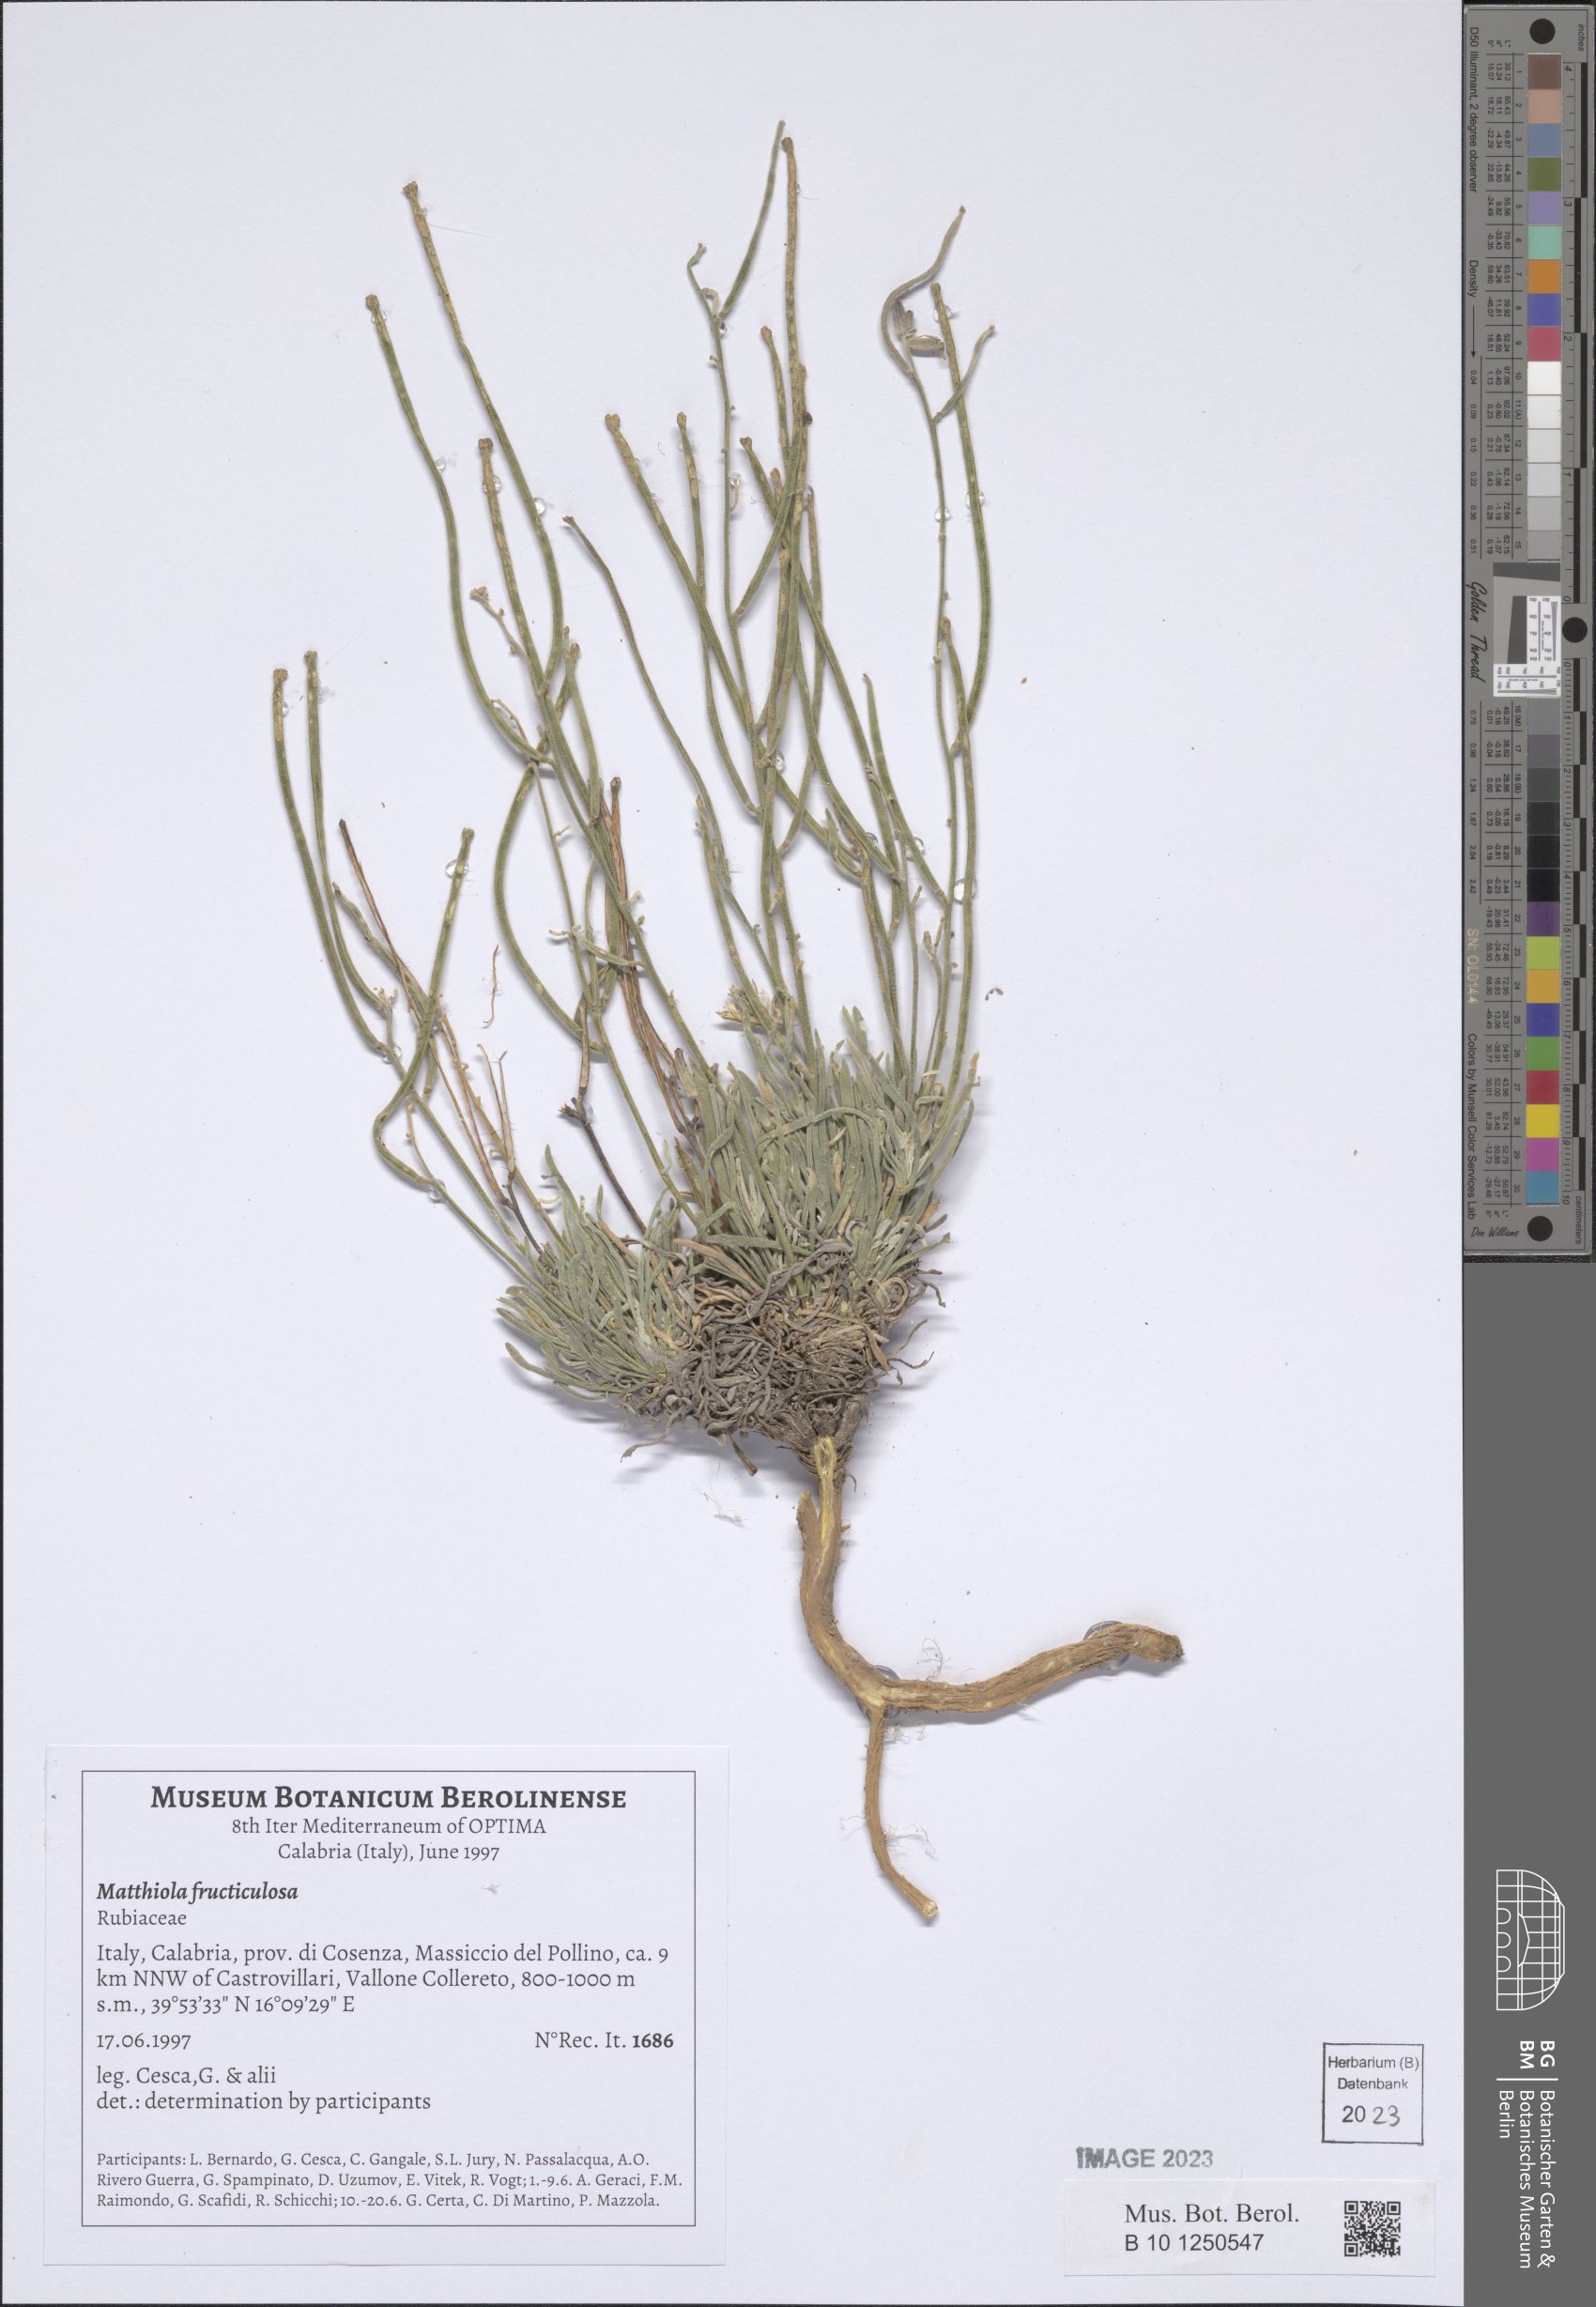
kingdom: Plantae
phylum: Tracheophyta
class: Magnoliopsida
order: Brassicales
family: Brassicaceae
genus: Matthiola
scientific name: Matthiola fruticulosa
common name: Sad stock
